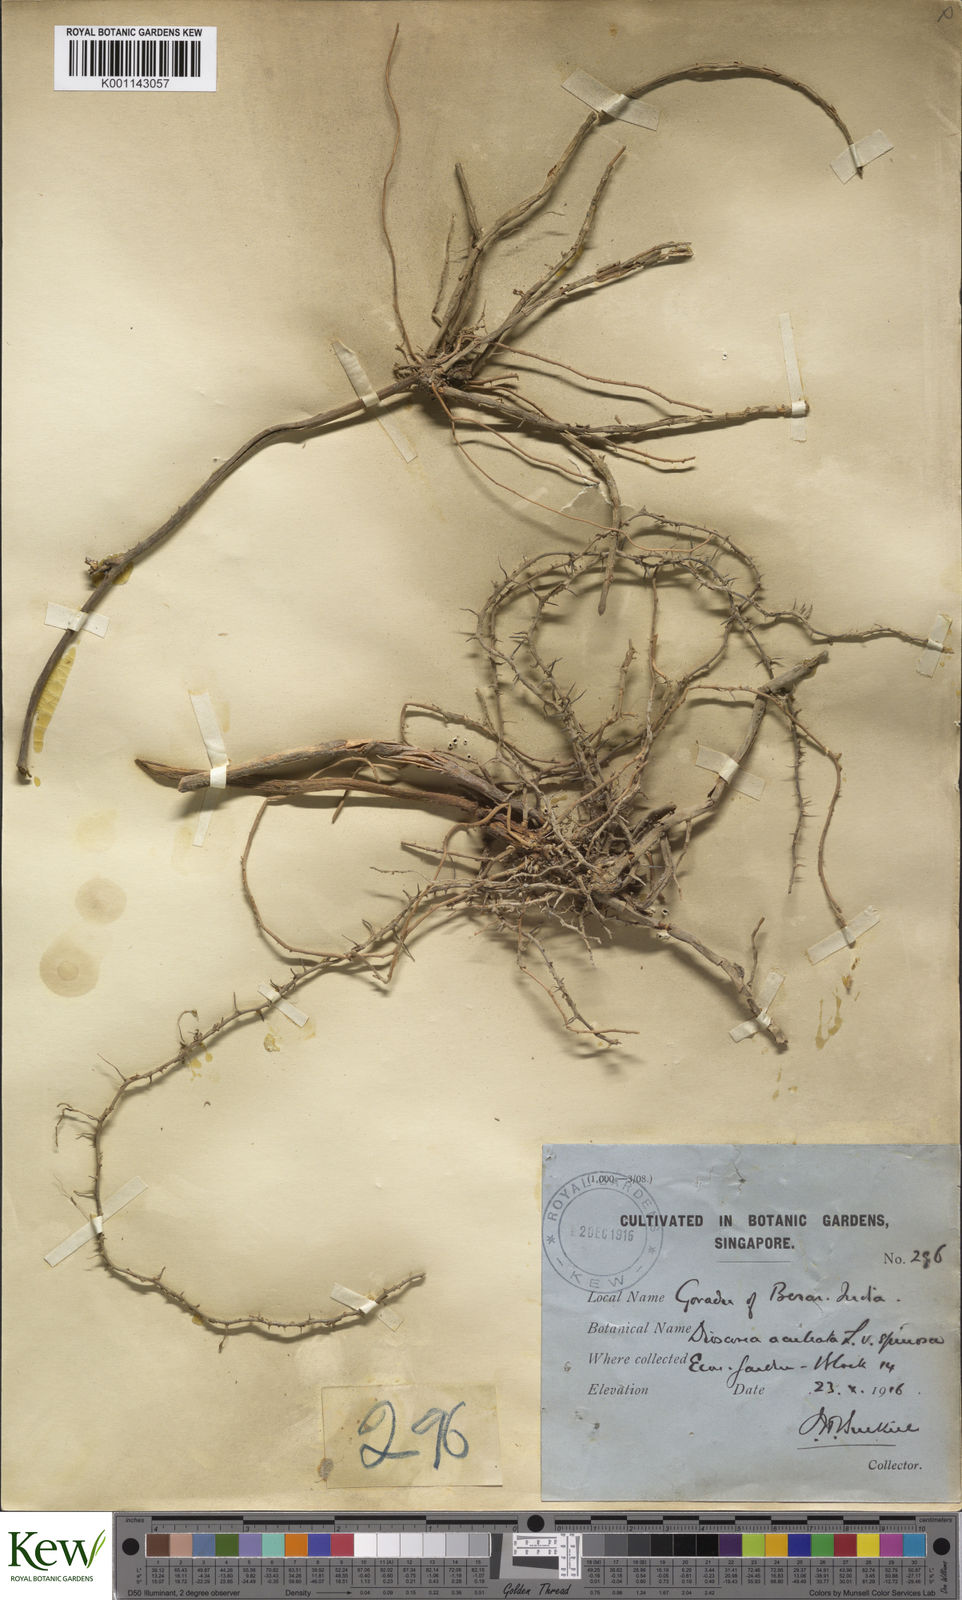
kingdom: Plantae
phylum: Tracheophyta
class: Liliopsida
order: Dioscoreales
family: Dioscoreaceae
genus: Dioscorea
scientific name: Dioscorea esculenta
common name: Chinese yam
